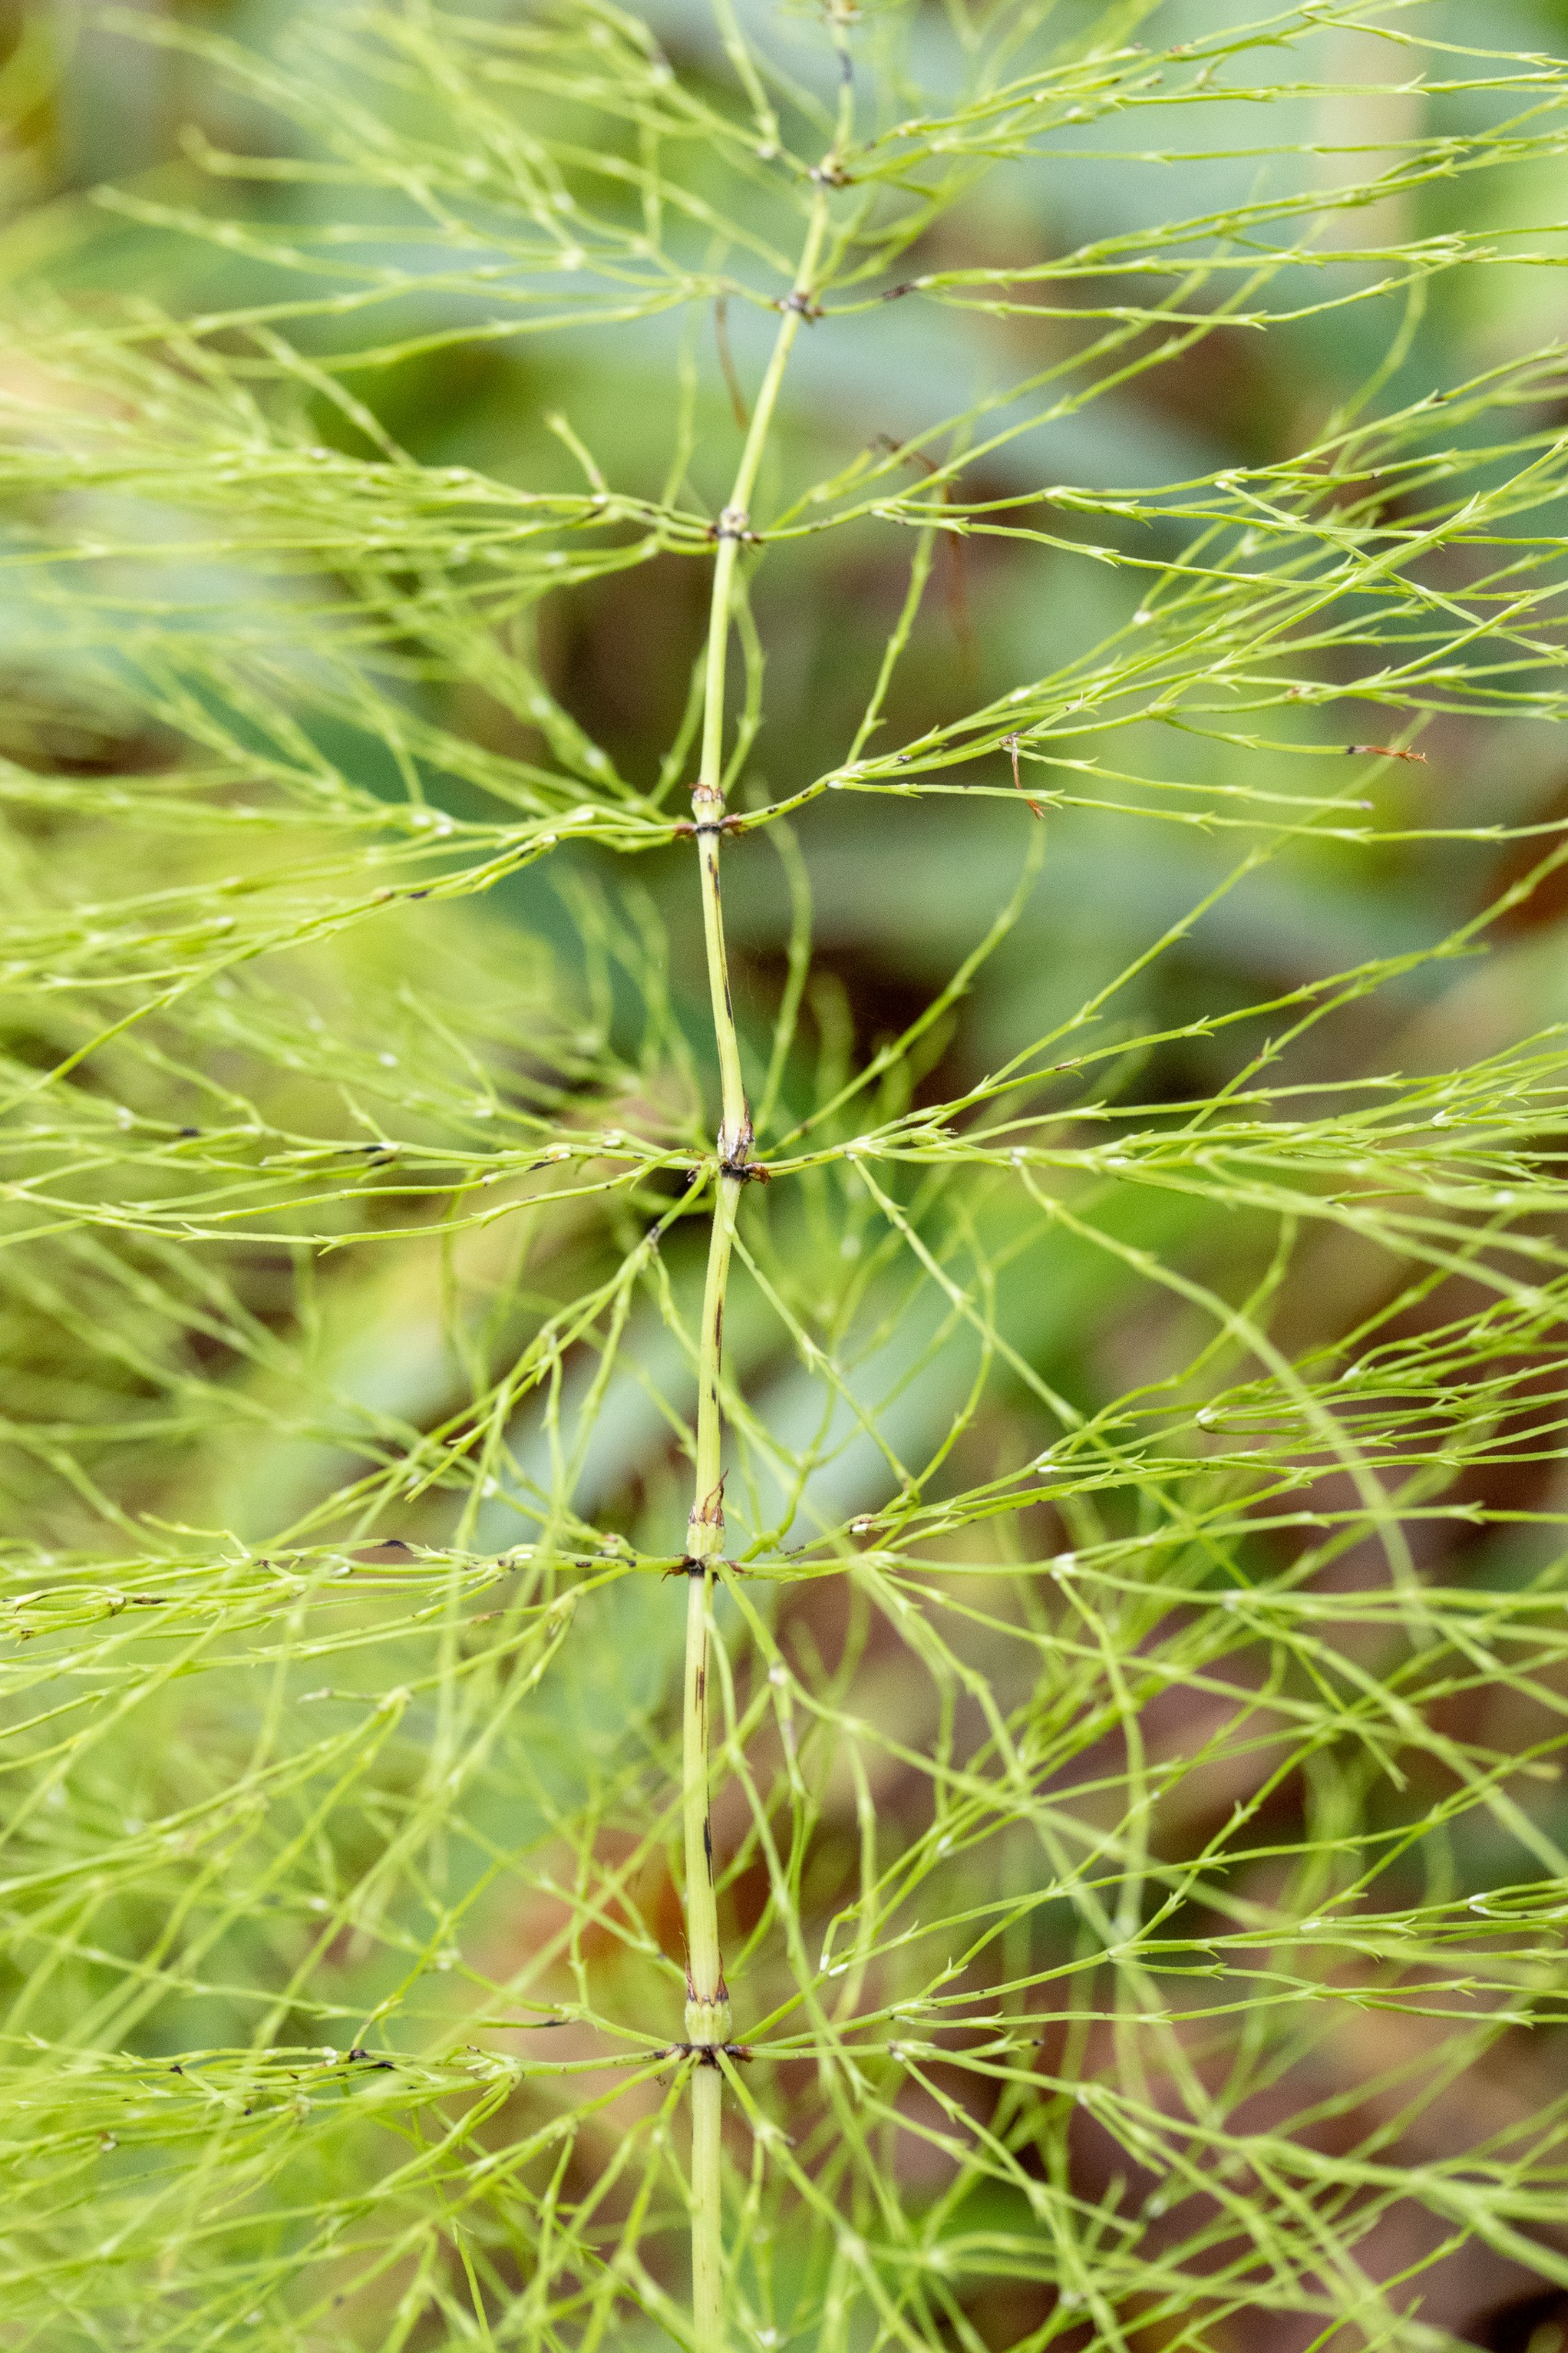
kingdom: Plantae
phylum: Tracheophyta
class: Polypodiopsida
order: Equisetales
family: Equisetaceae
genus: Equisetum
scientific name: Equisetum sylvaticum
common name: Skov-padderok
